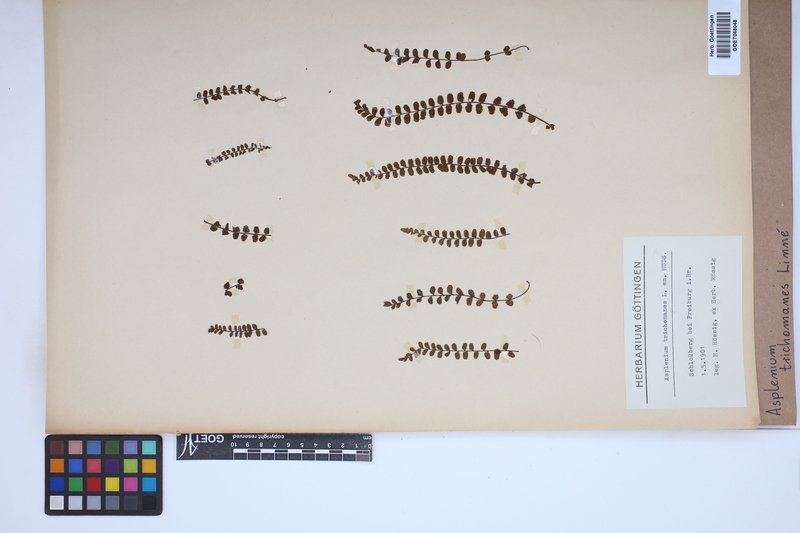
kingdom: Plantae
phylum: Tracheophyta
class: Polypodiopsida
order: Polypodiales
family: Aspleniaceae
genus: Asplenium
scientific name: Asplenium trichomanes
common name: Maidenhair spleenwort
